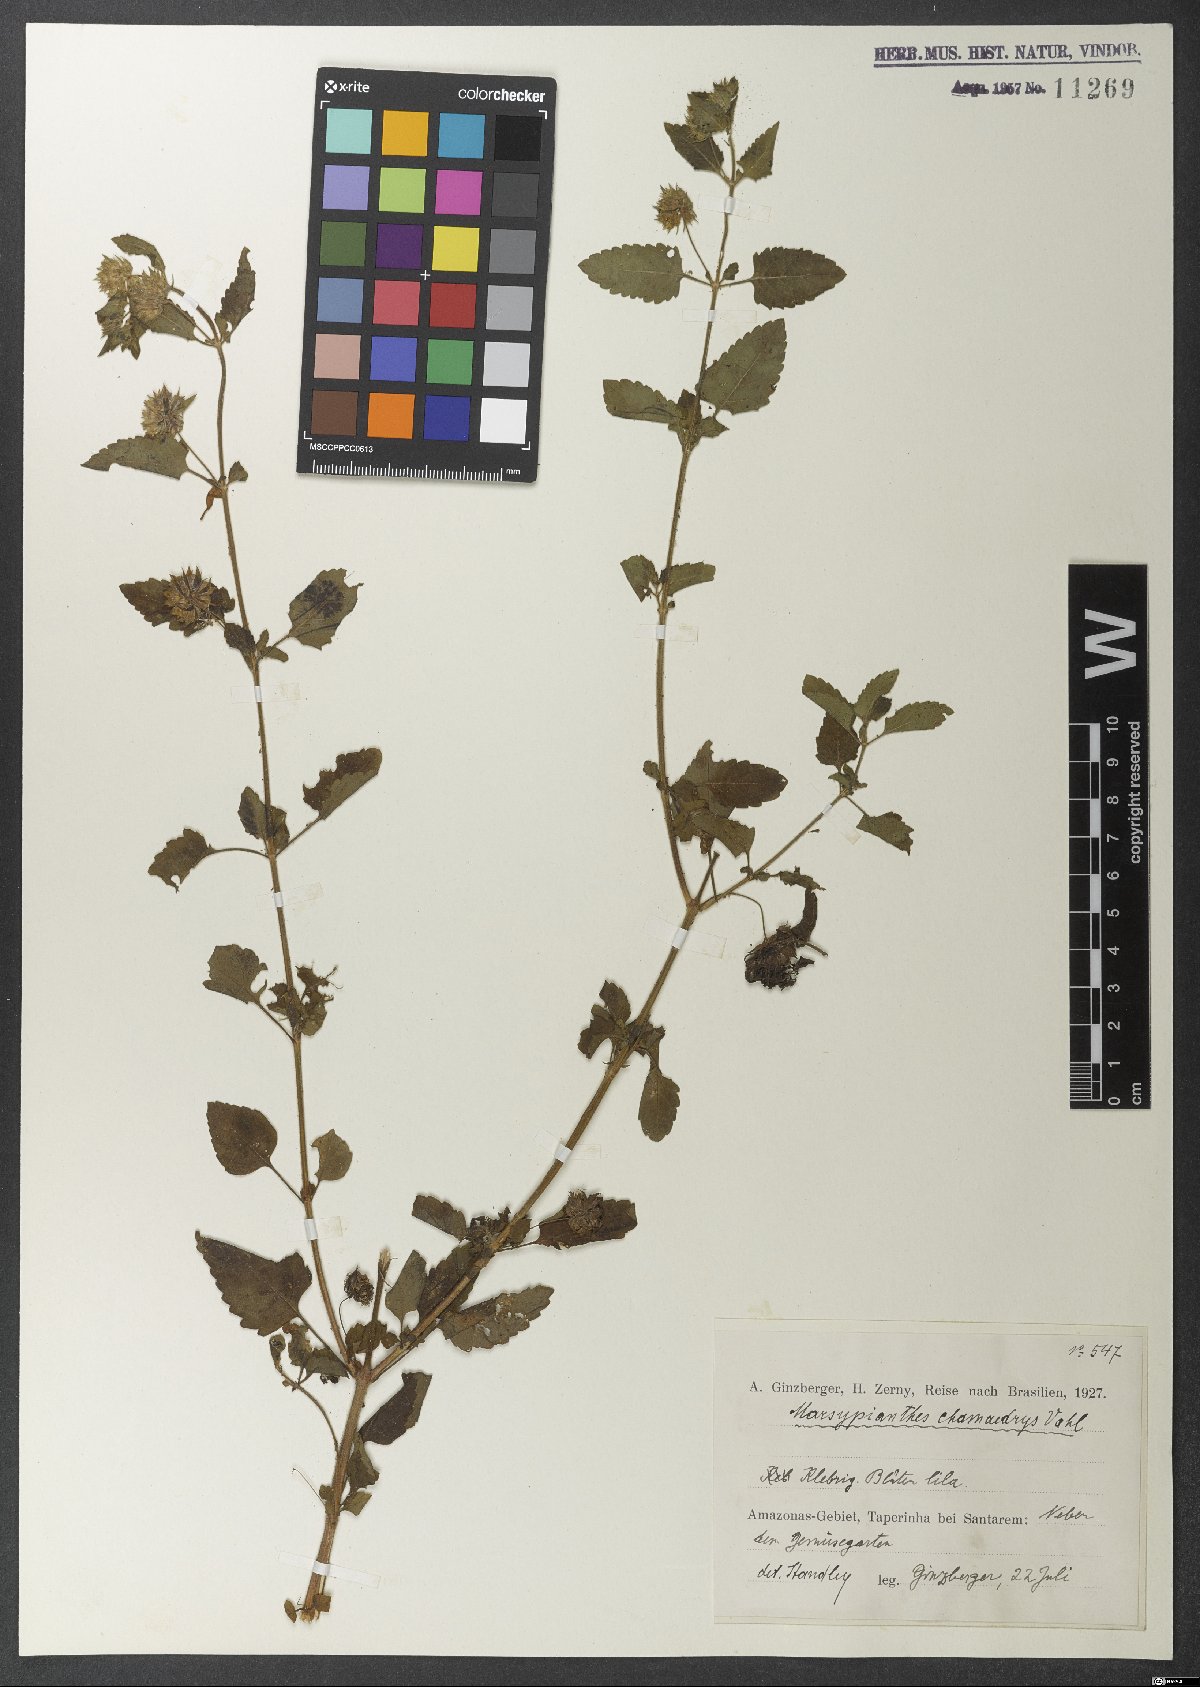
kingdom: Plantae
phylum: Tracheophyta
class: Magnoliopsida
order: Lamiales
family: Lamiaceae
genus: Marsypianthes
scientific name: Marsypianthes chamaedrys
